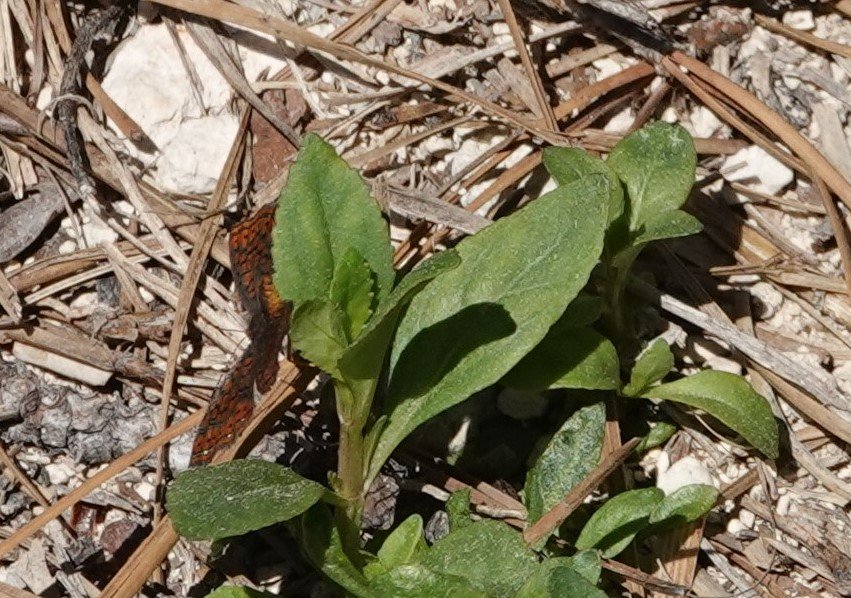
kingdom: Animalia
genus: Calephelis
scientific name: Calephelis virginiensis
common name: Little Metalmark
